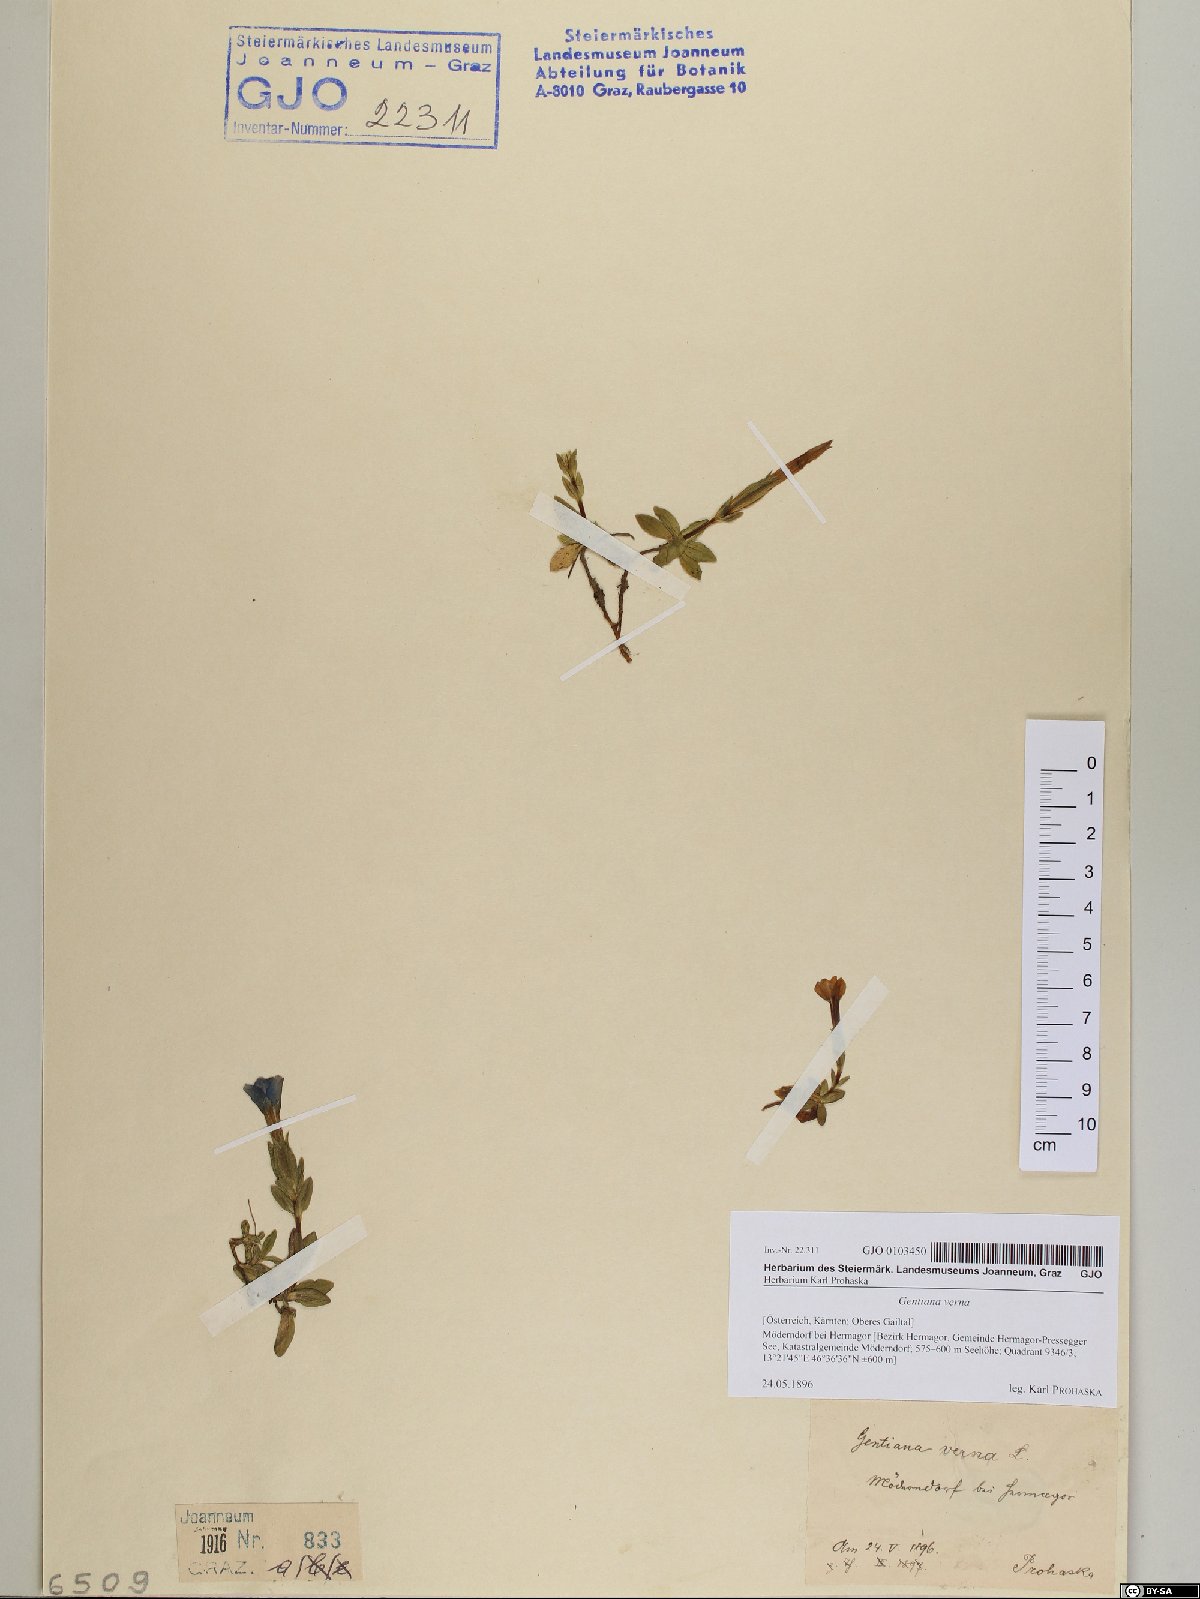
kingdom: Plantae
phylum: Tracheophyta
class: Magnoliopsida
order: Gentianales
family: Gentianaceae
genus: Gentiana
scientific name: Gentiana verna
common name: Spring gentian
